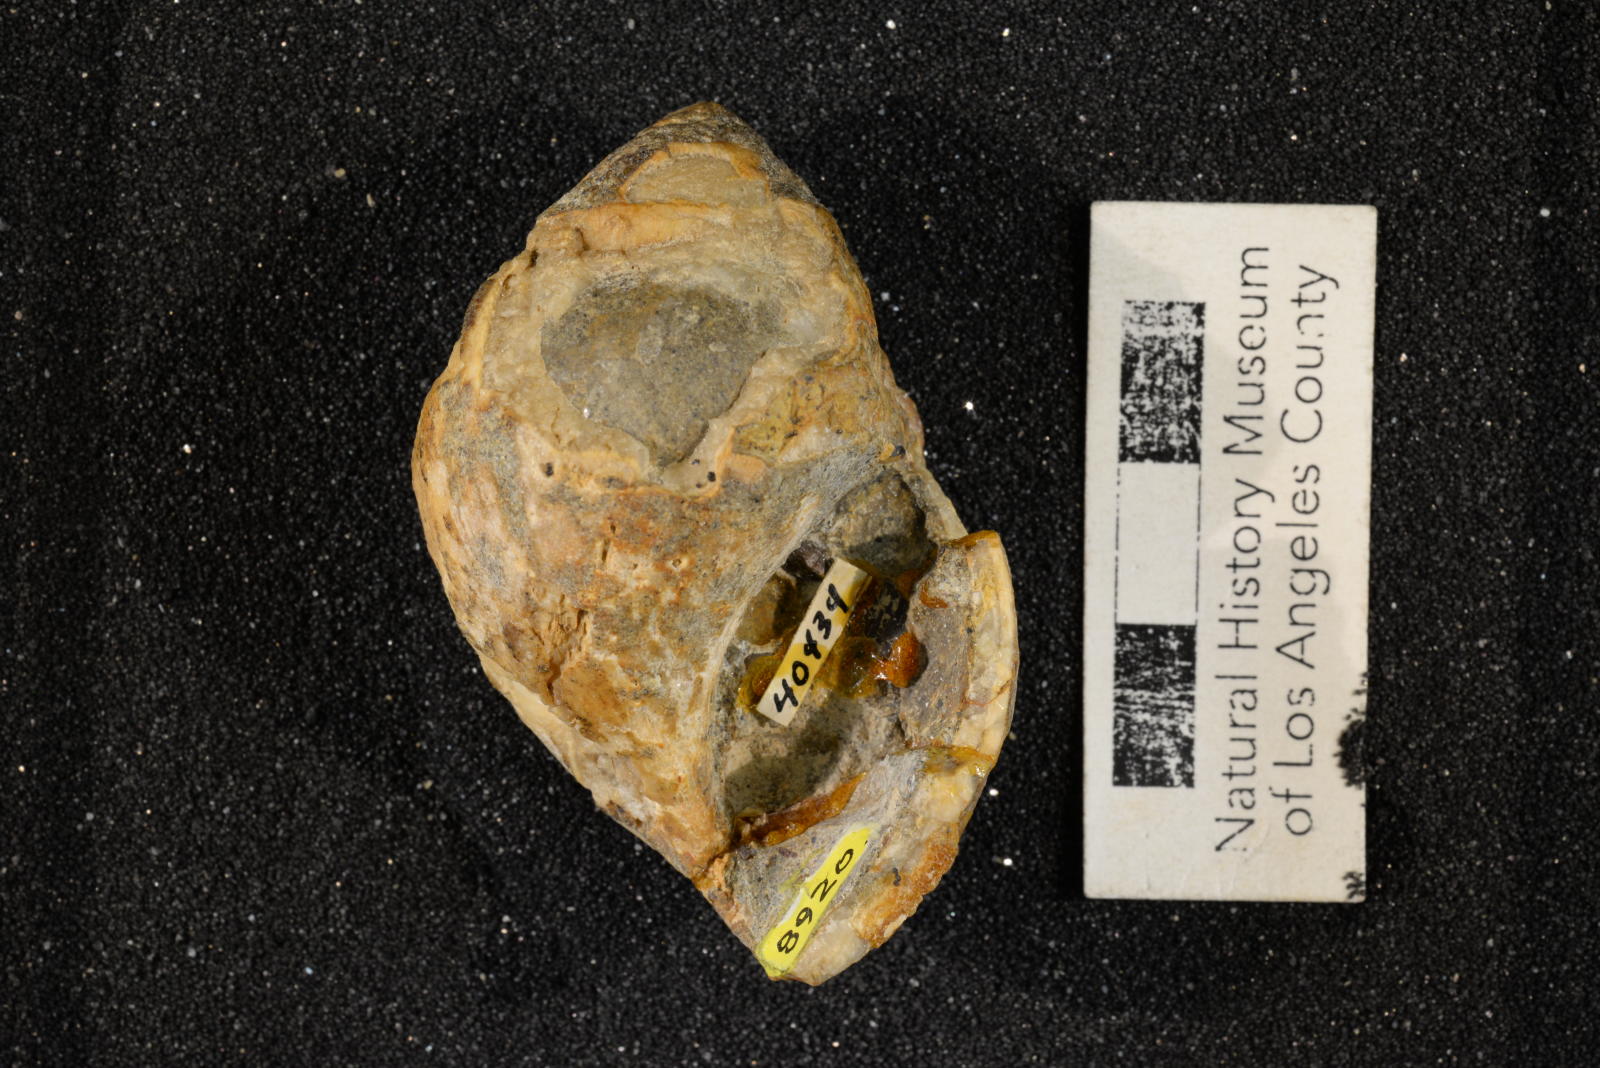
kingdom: Animalia
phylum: Mollusca
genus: Ampullina
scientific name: Ampullina
